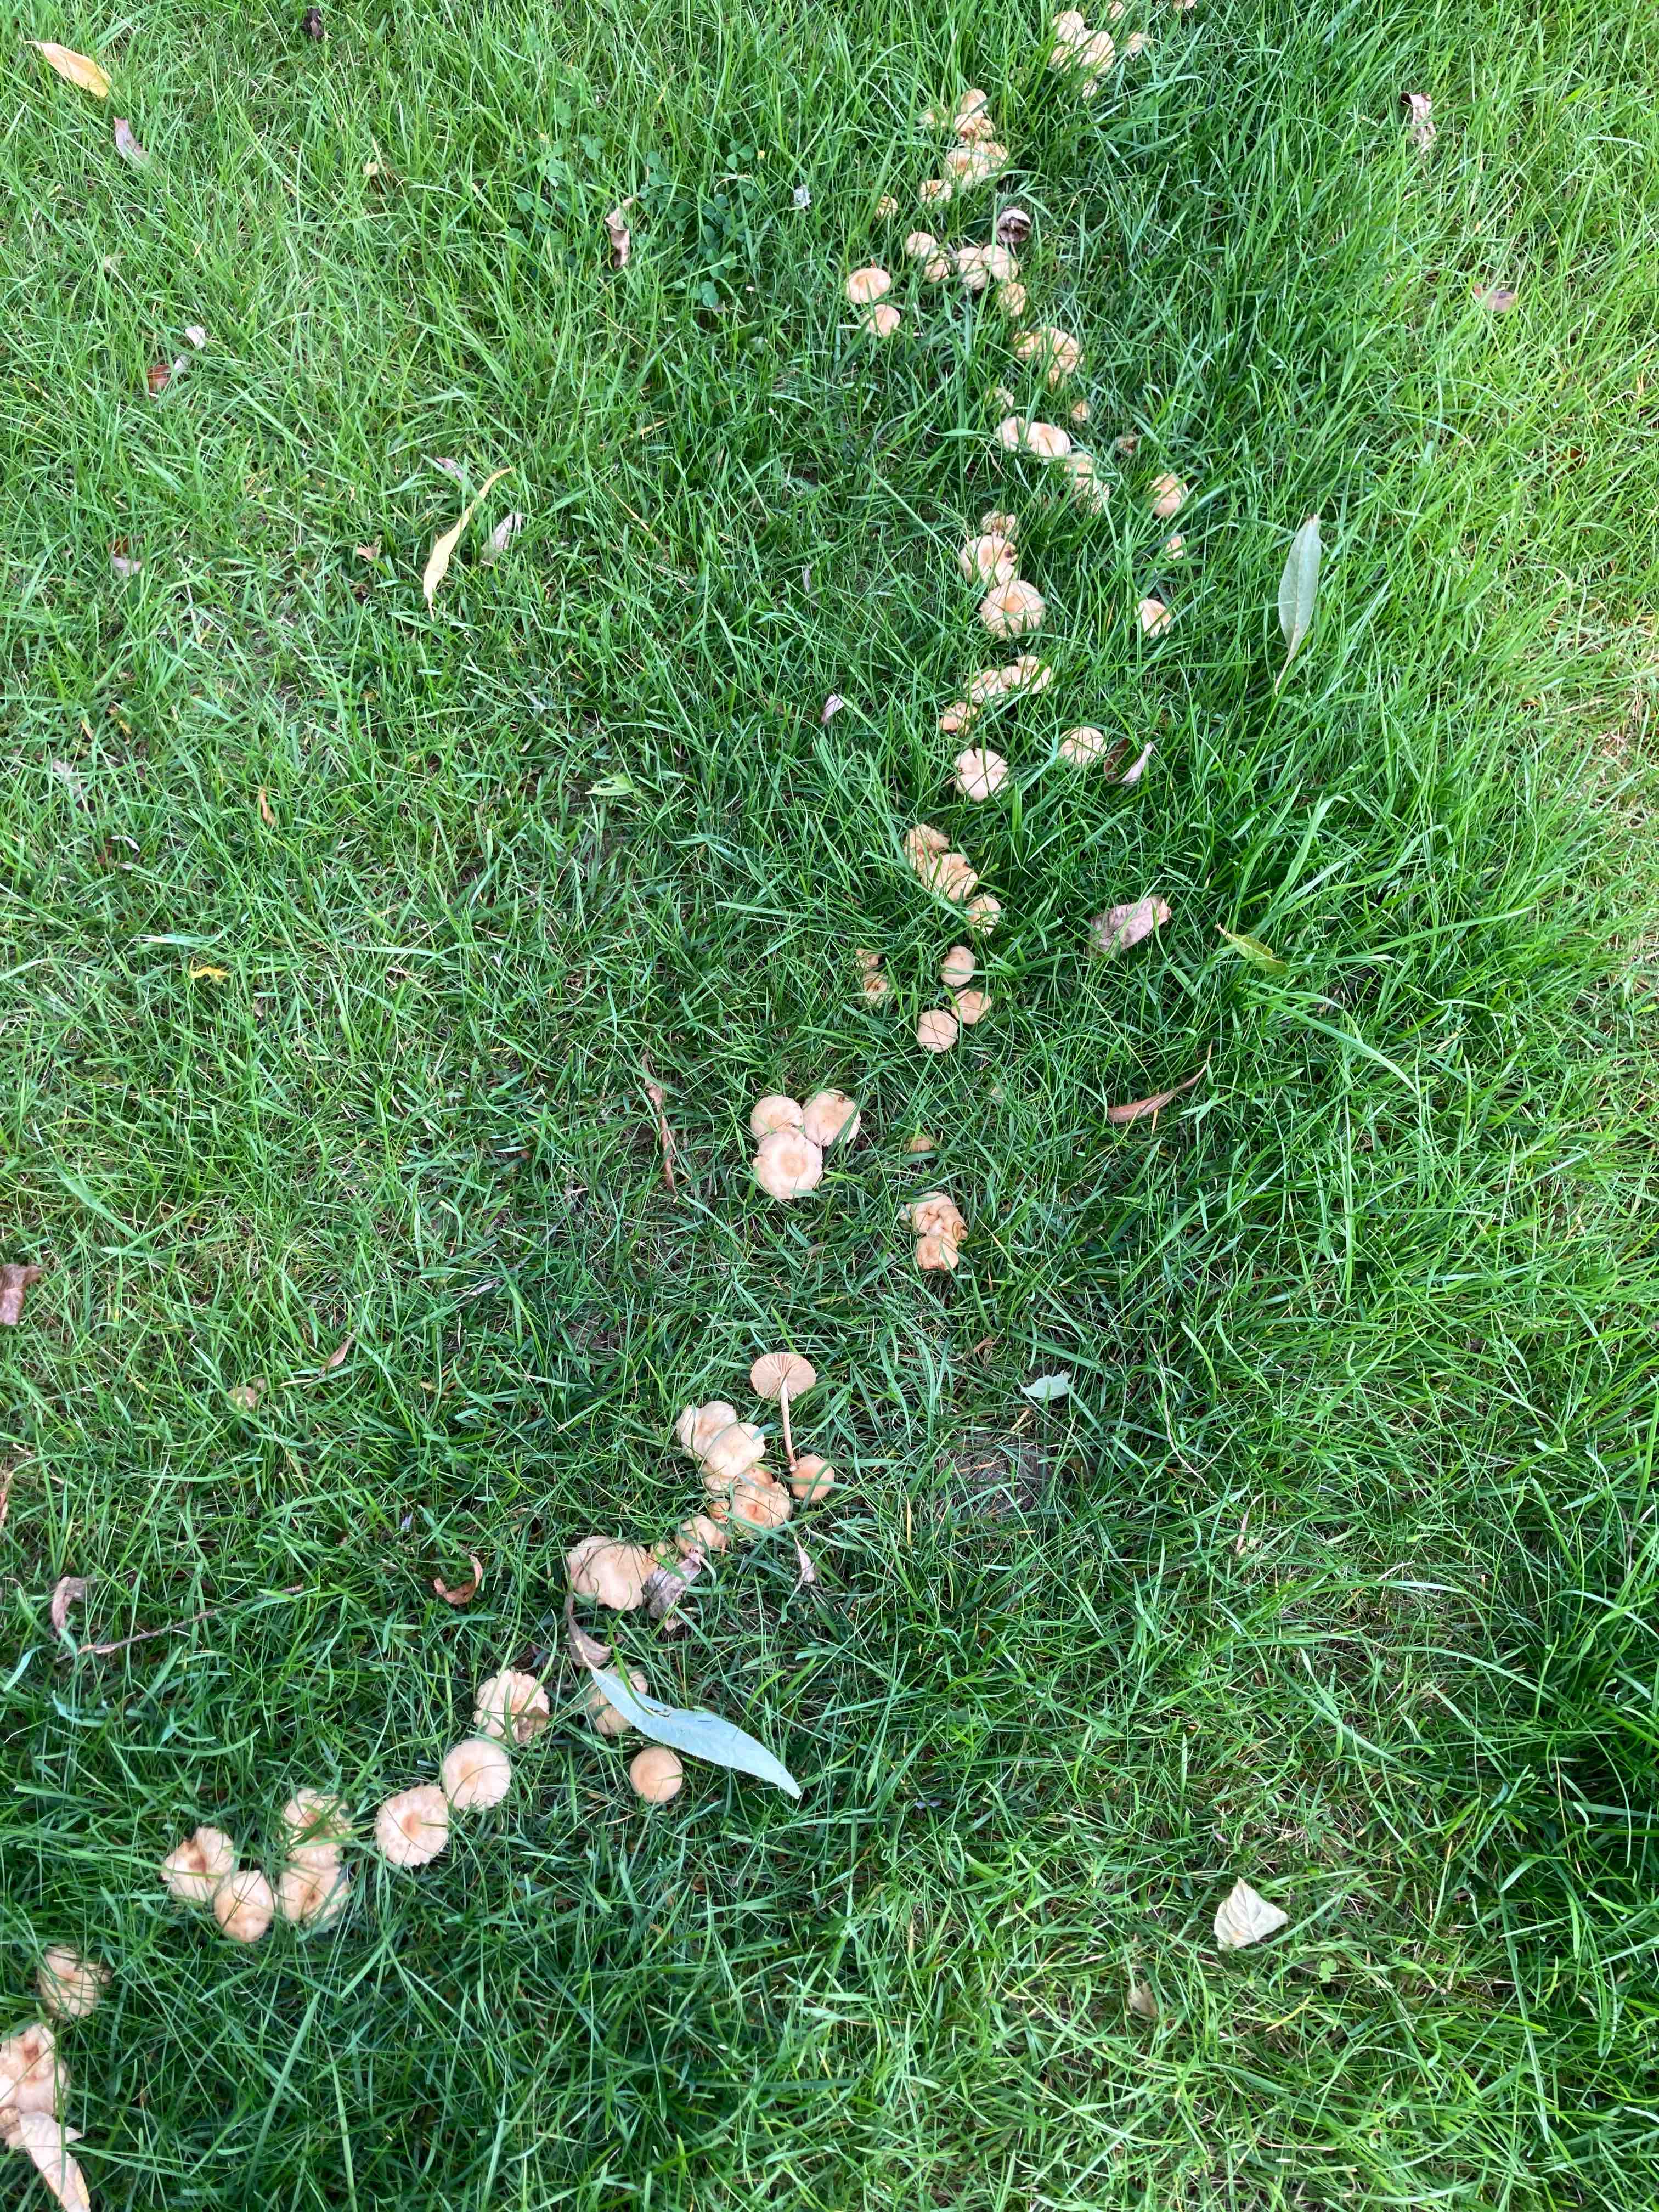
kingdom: Fungi
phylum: Basidiomycota
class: Agaricomycetes
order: Agaricales
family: Marasmiaceae
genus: Marasmius
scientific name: Marasmius oreades
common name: elledans-bruskhat
